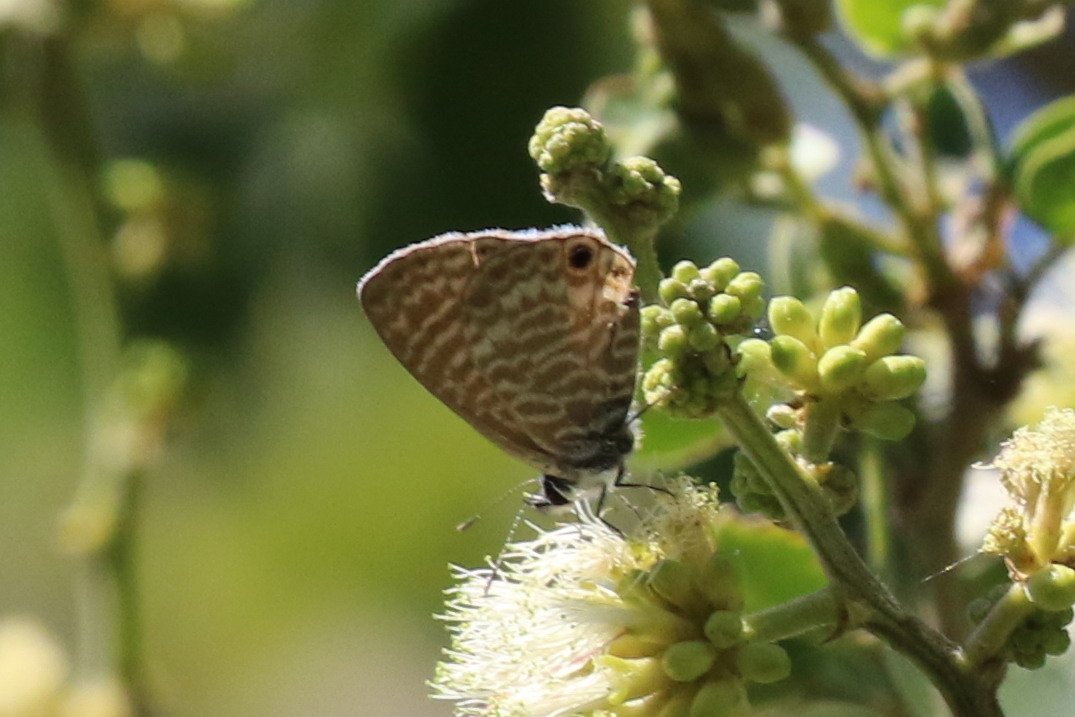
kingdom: Animalia
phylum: Arthropoda
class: Insecta
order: Lepidoptera
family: Lycaenidae
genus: Leptotes
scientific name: Leptotes marina
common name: Marine Blue
